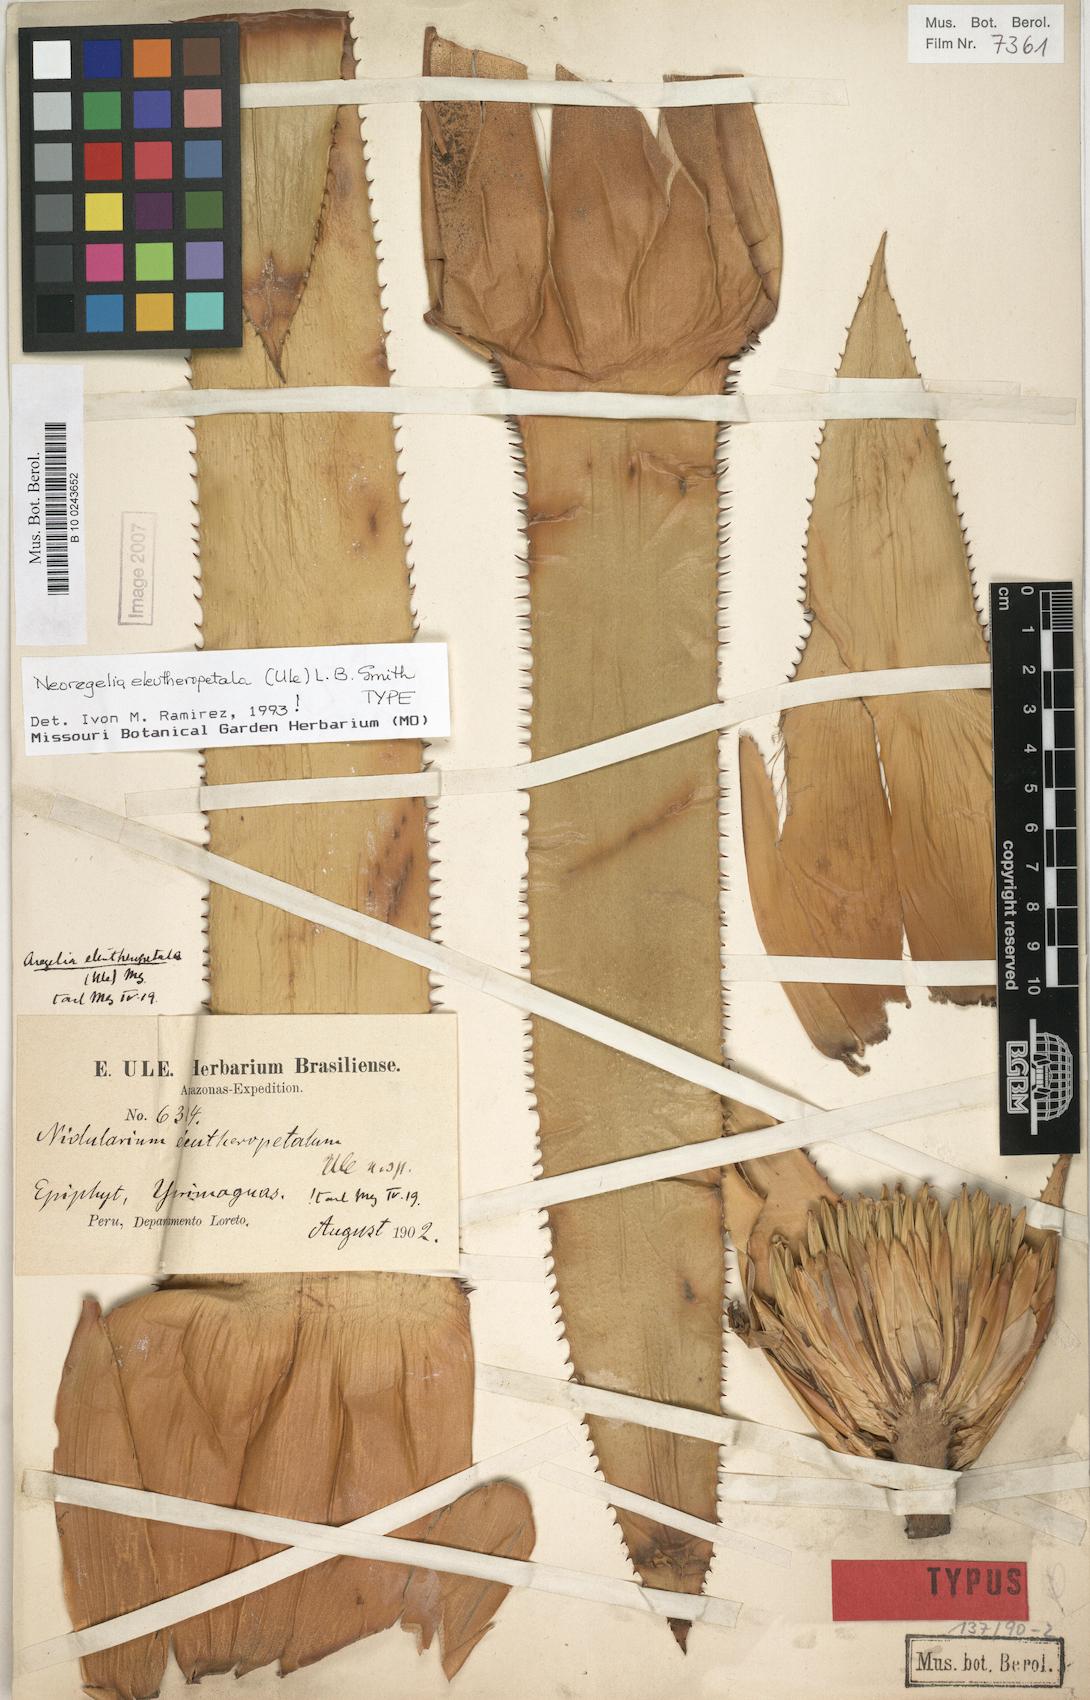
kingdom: Plantae
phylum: Tracheophyta
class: Liliopsida
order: Poales
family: Bromeliaceae
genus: Hylaeaicum
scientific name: Hylaeaicum eleutheropetalum
